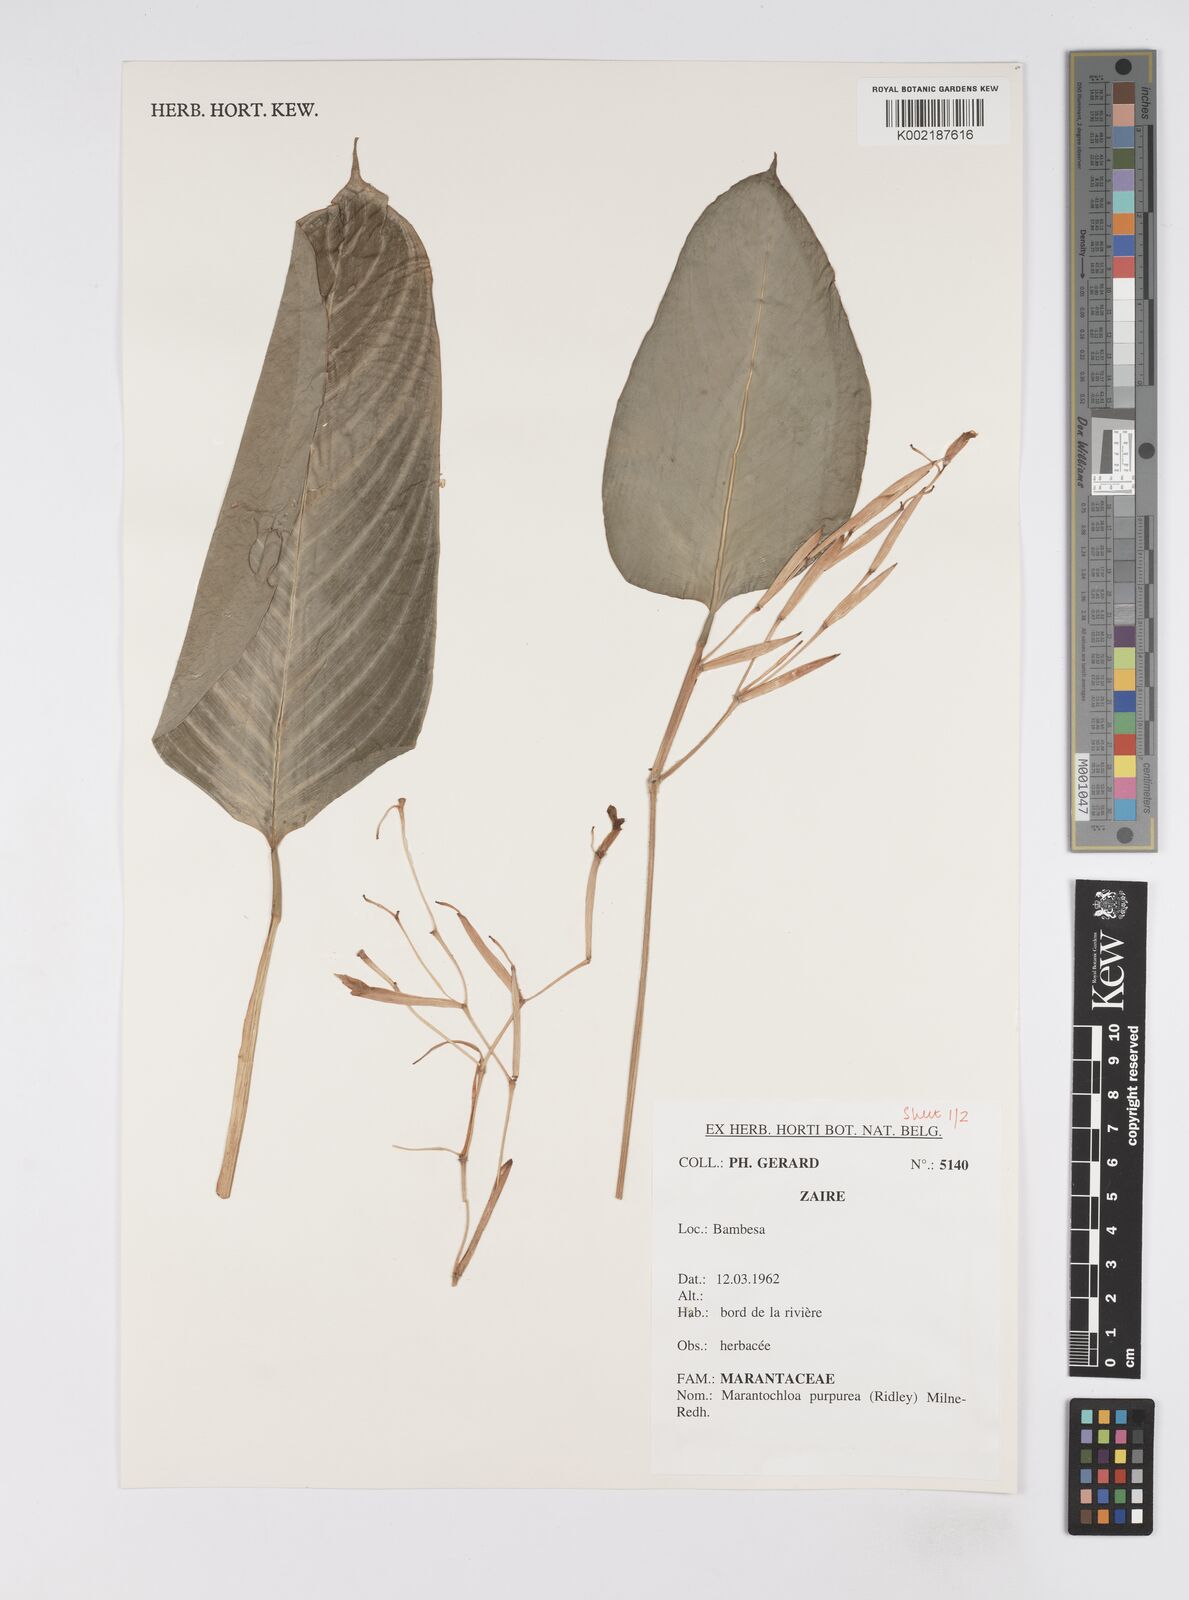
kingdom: Plantae
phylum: Tracheophyta
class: Liliopsida
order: Zingiberales
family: Marantaceae
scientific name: Marantaceae
